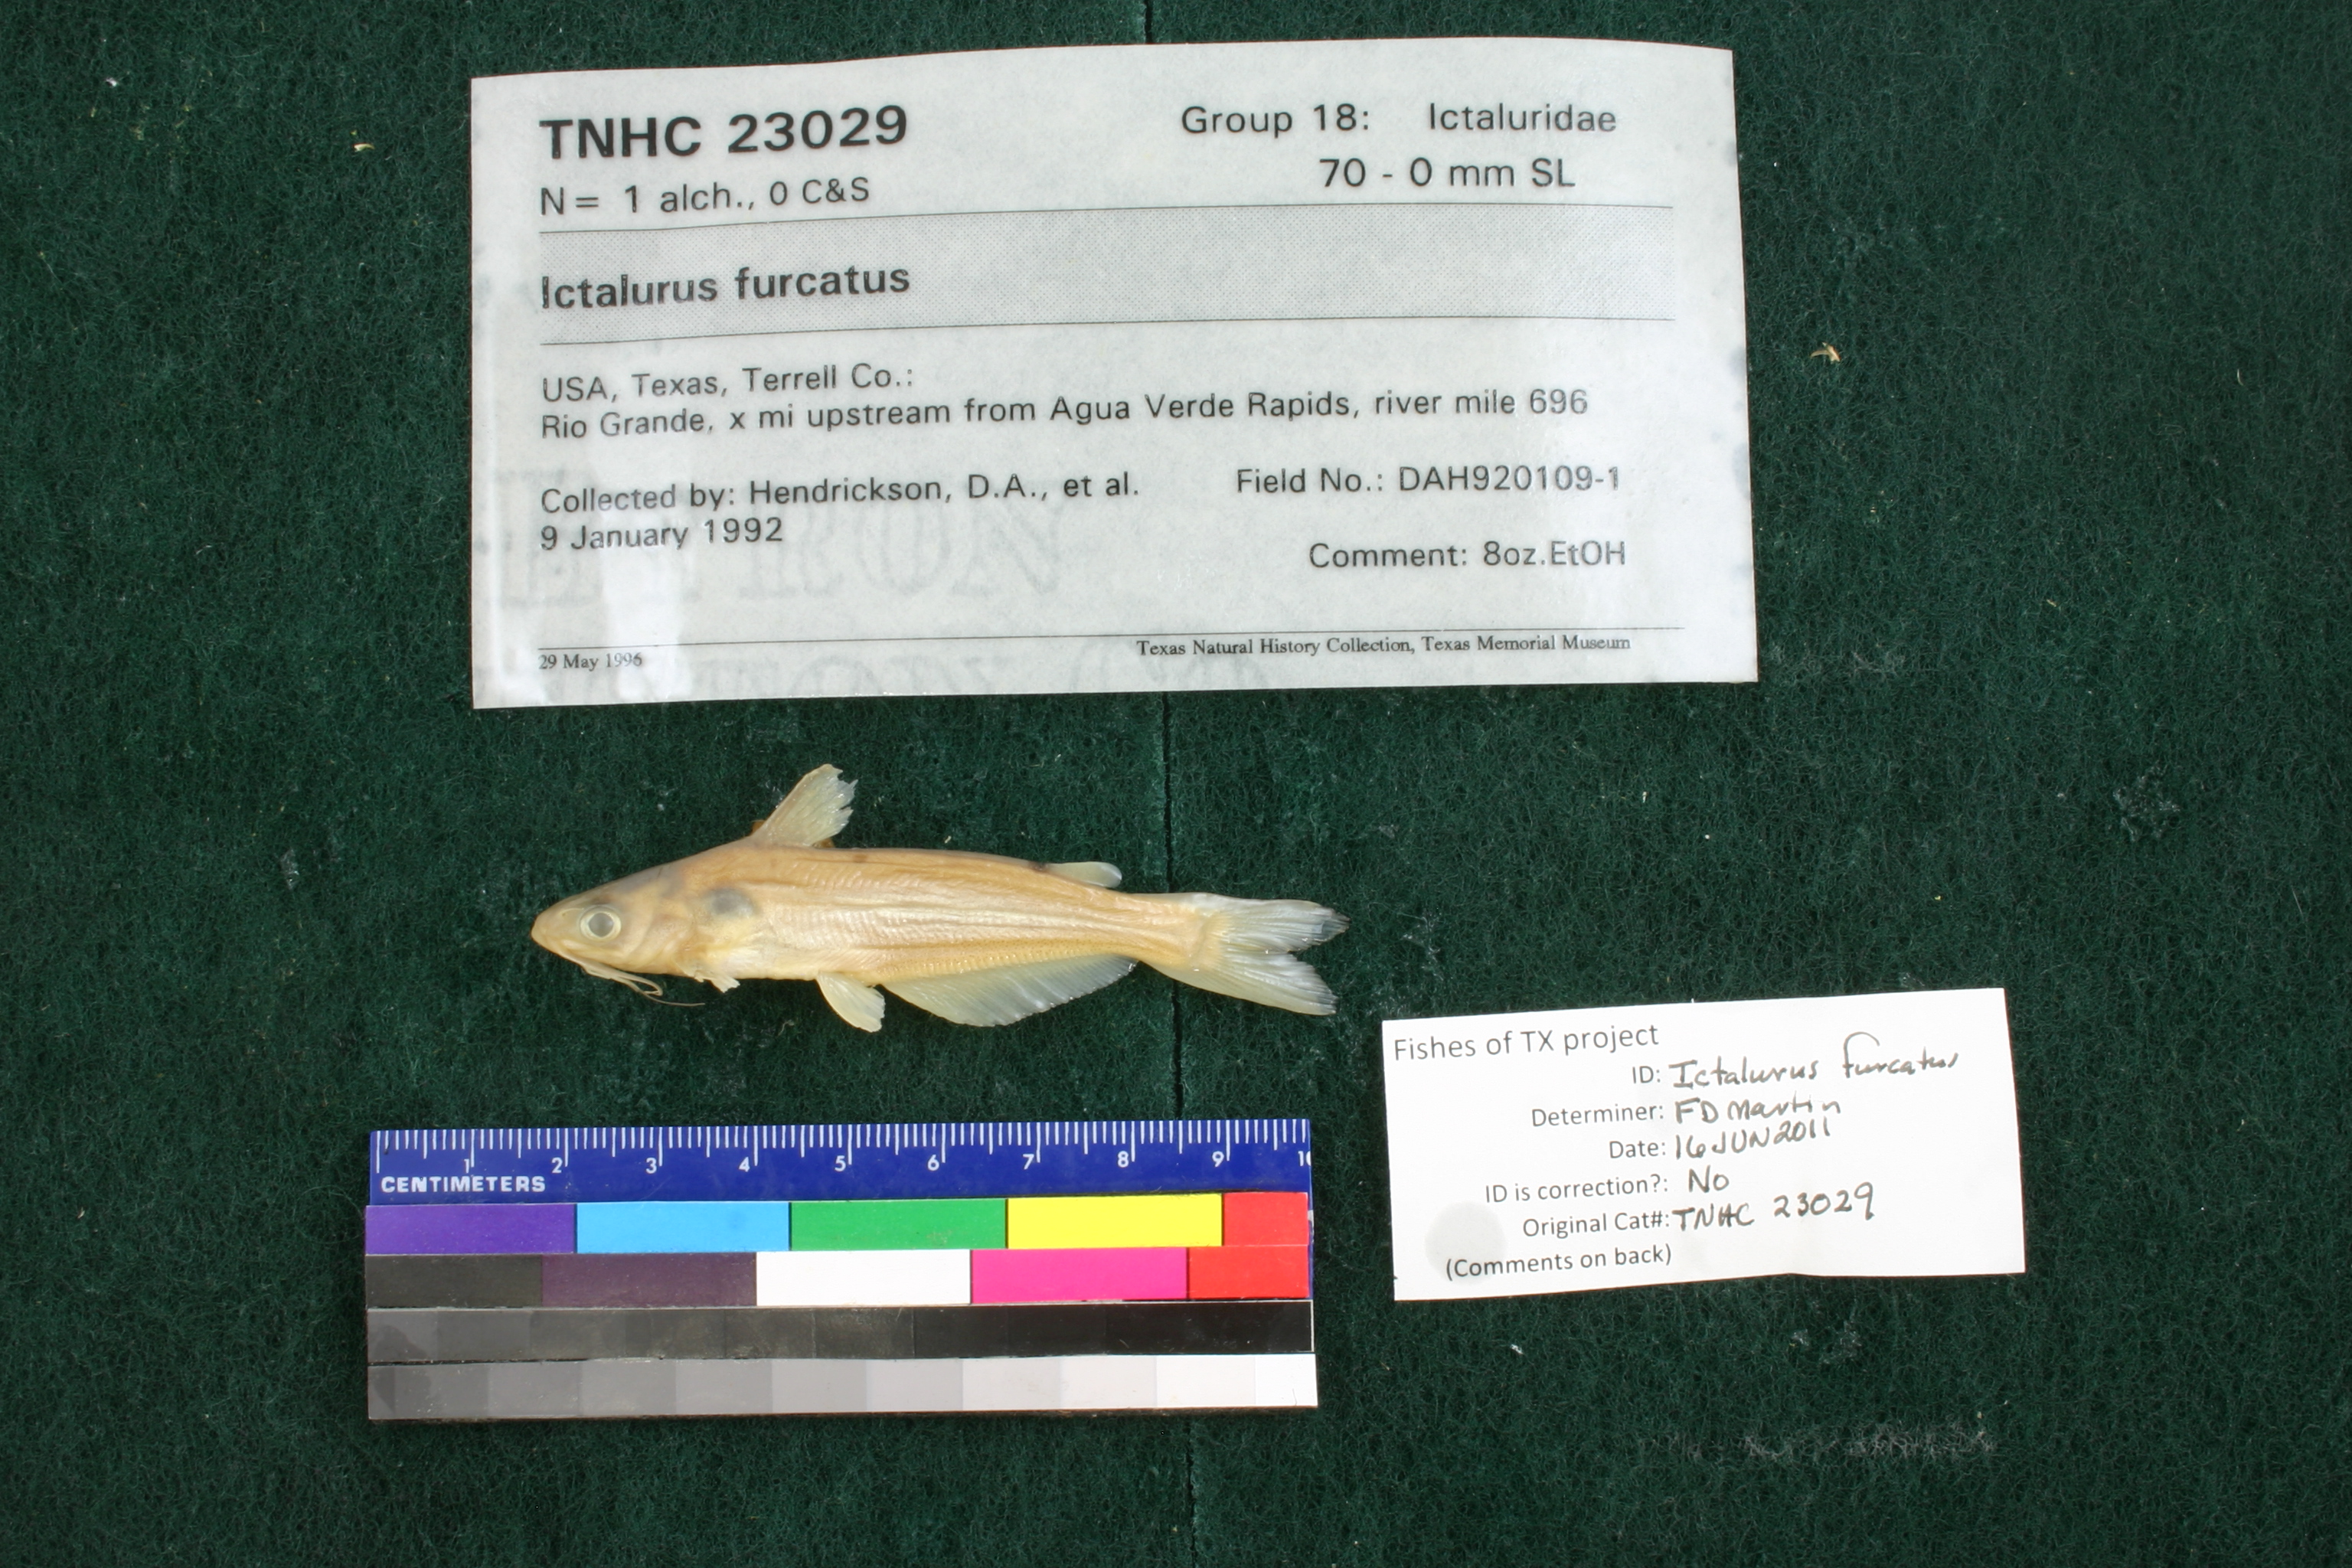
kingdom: Animalia
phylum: Chordata
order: Siluriformes
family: Ictaluridae
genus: Ictalurus
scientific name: Ictalurus furcatus
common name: Blue catfish
